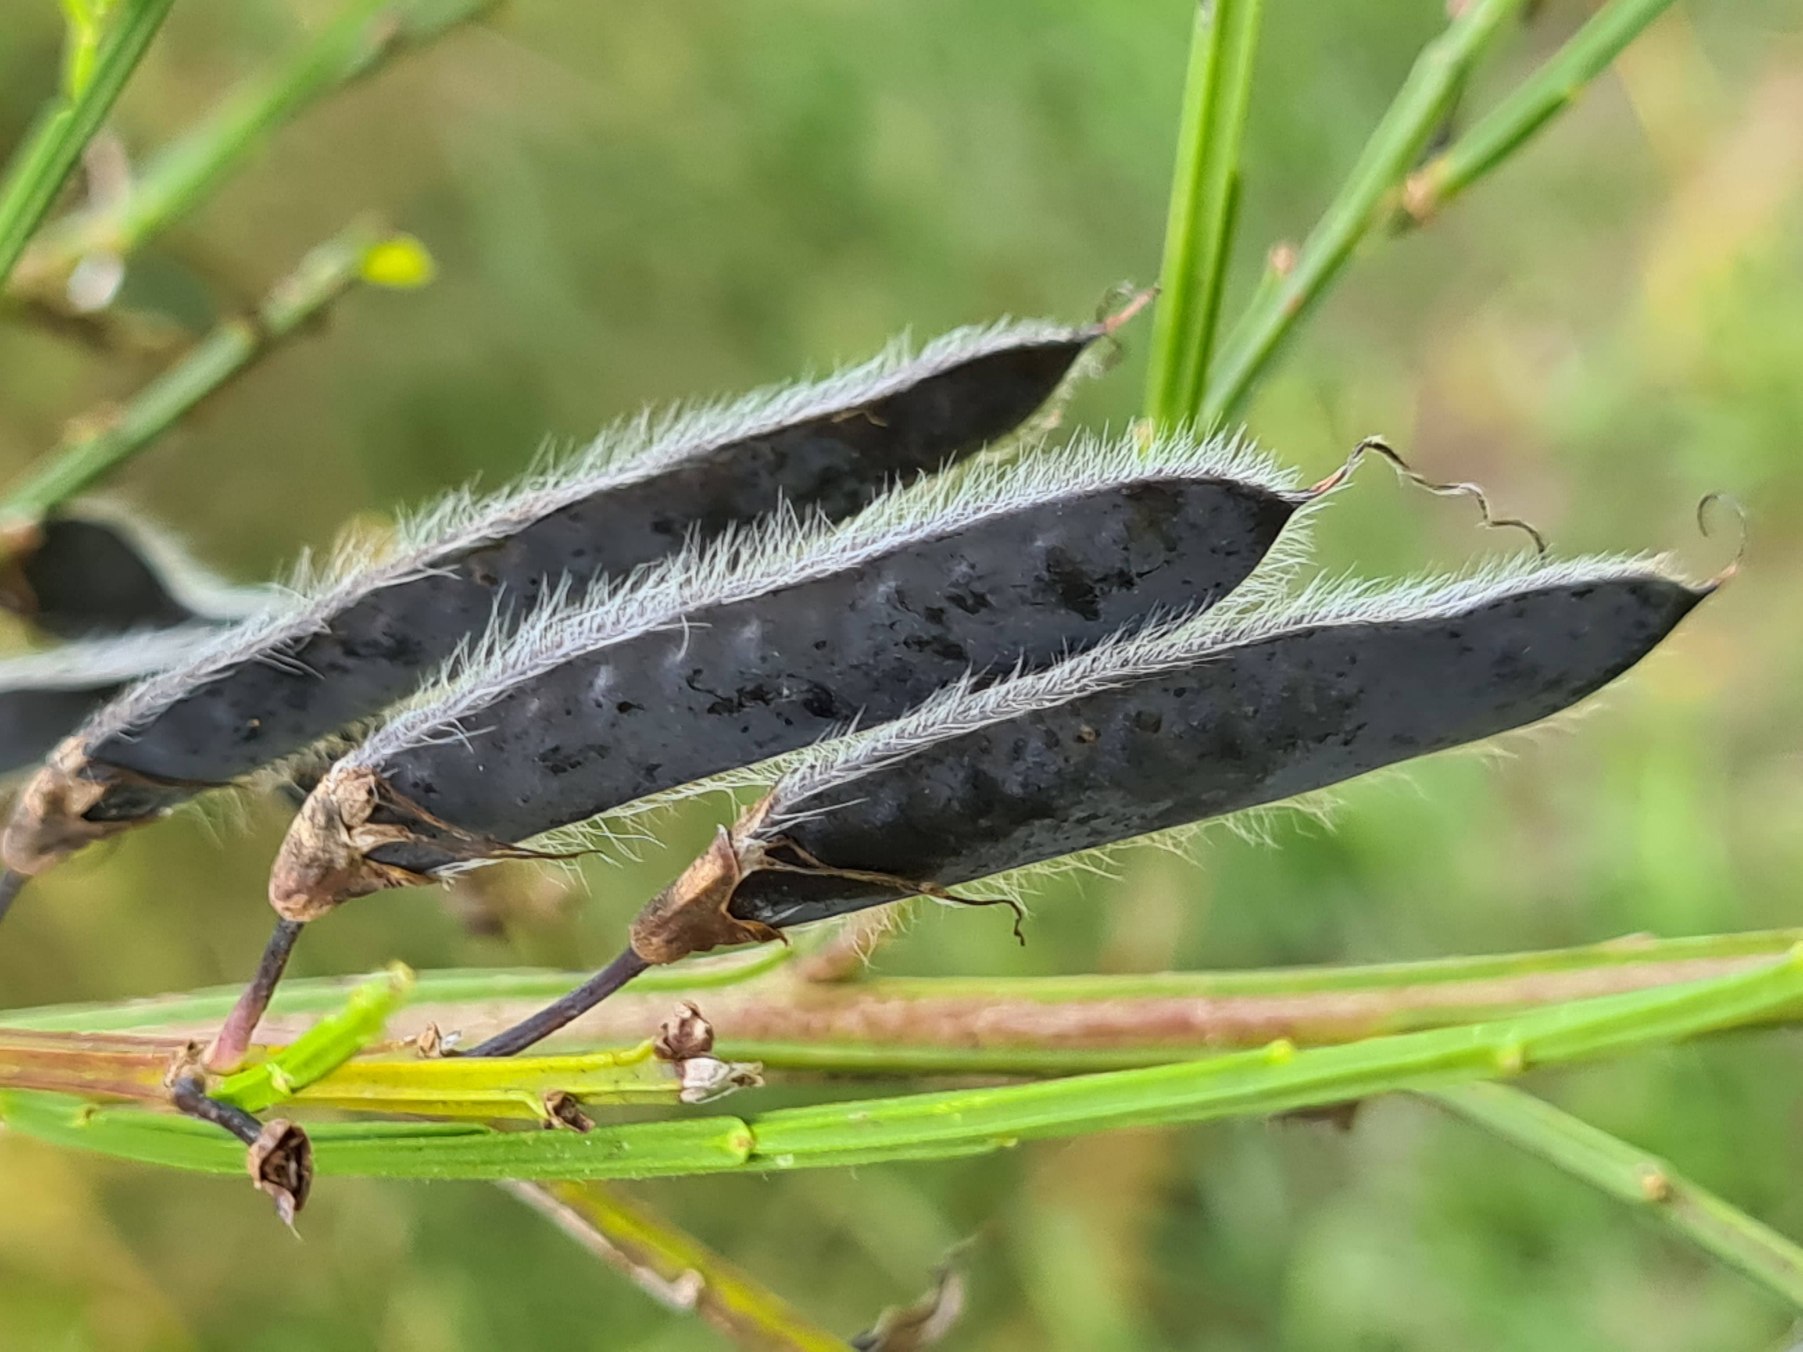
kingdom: Plantae
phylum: Tracheophyta
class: Magnoliopsida
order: Fabales
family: Fabaceae
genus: Cytisus
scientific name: Cytisus scoparius
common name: Almindelig gyvel
